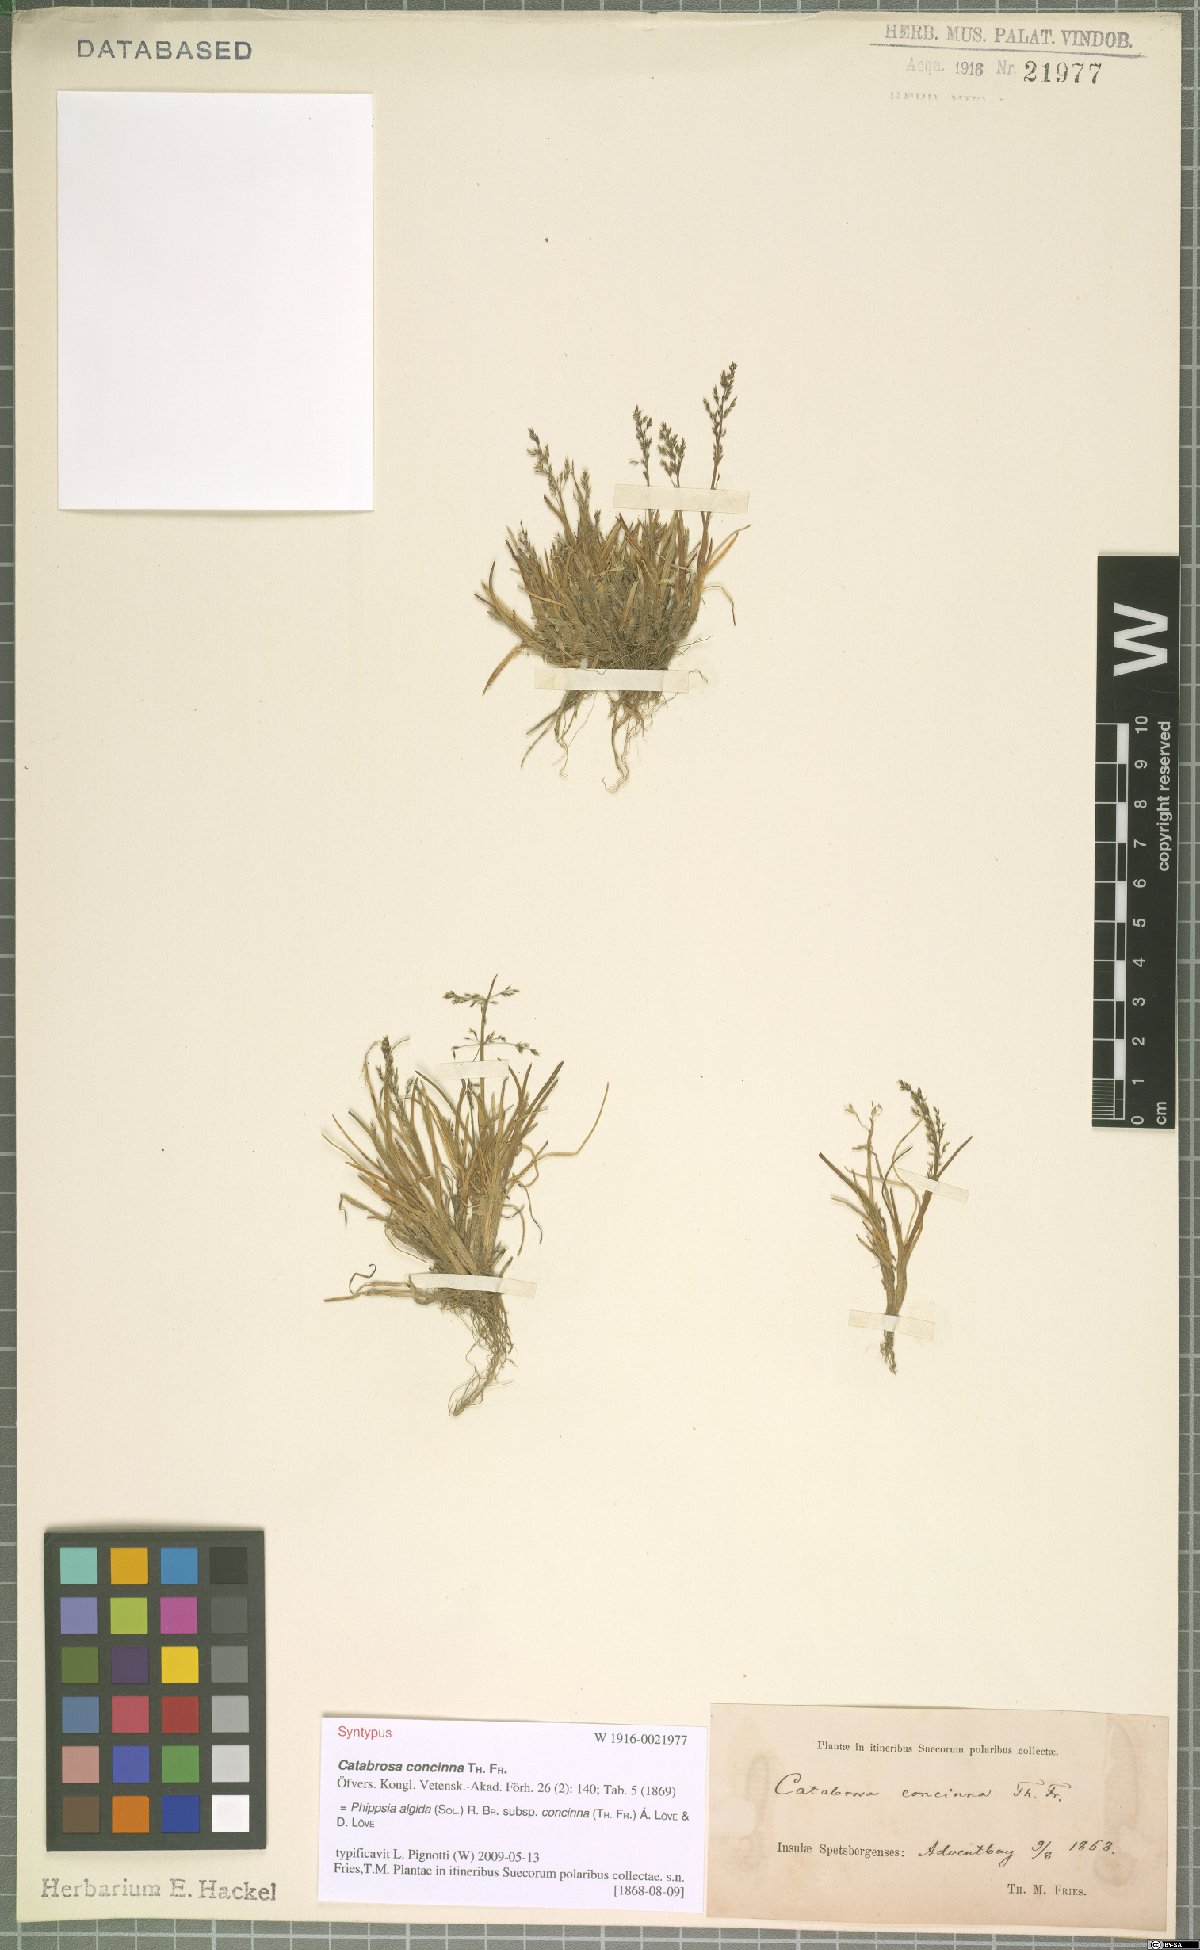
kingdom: Plantae
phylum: Tracheophyta
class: Liliopsida
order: Poales
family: Poaceae
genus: Phippsia
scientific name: Phippsia concinna
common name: Snowgrass
